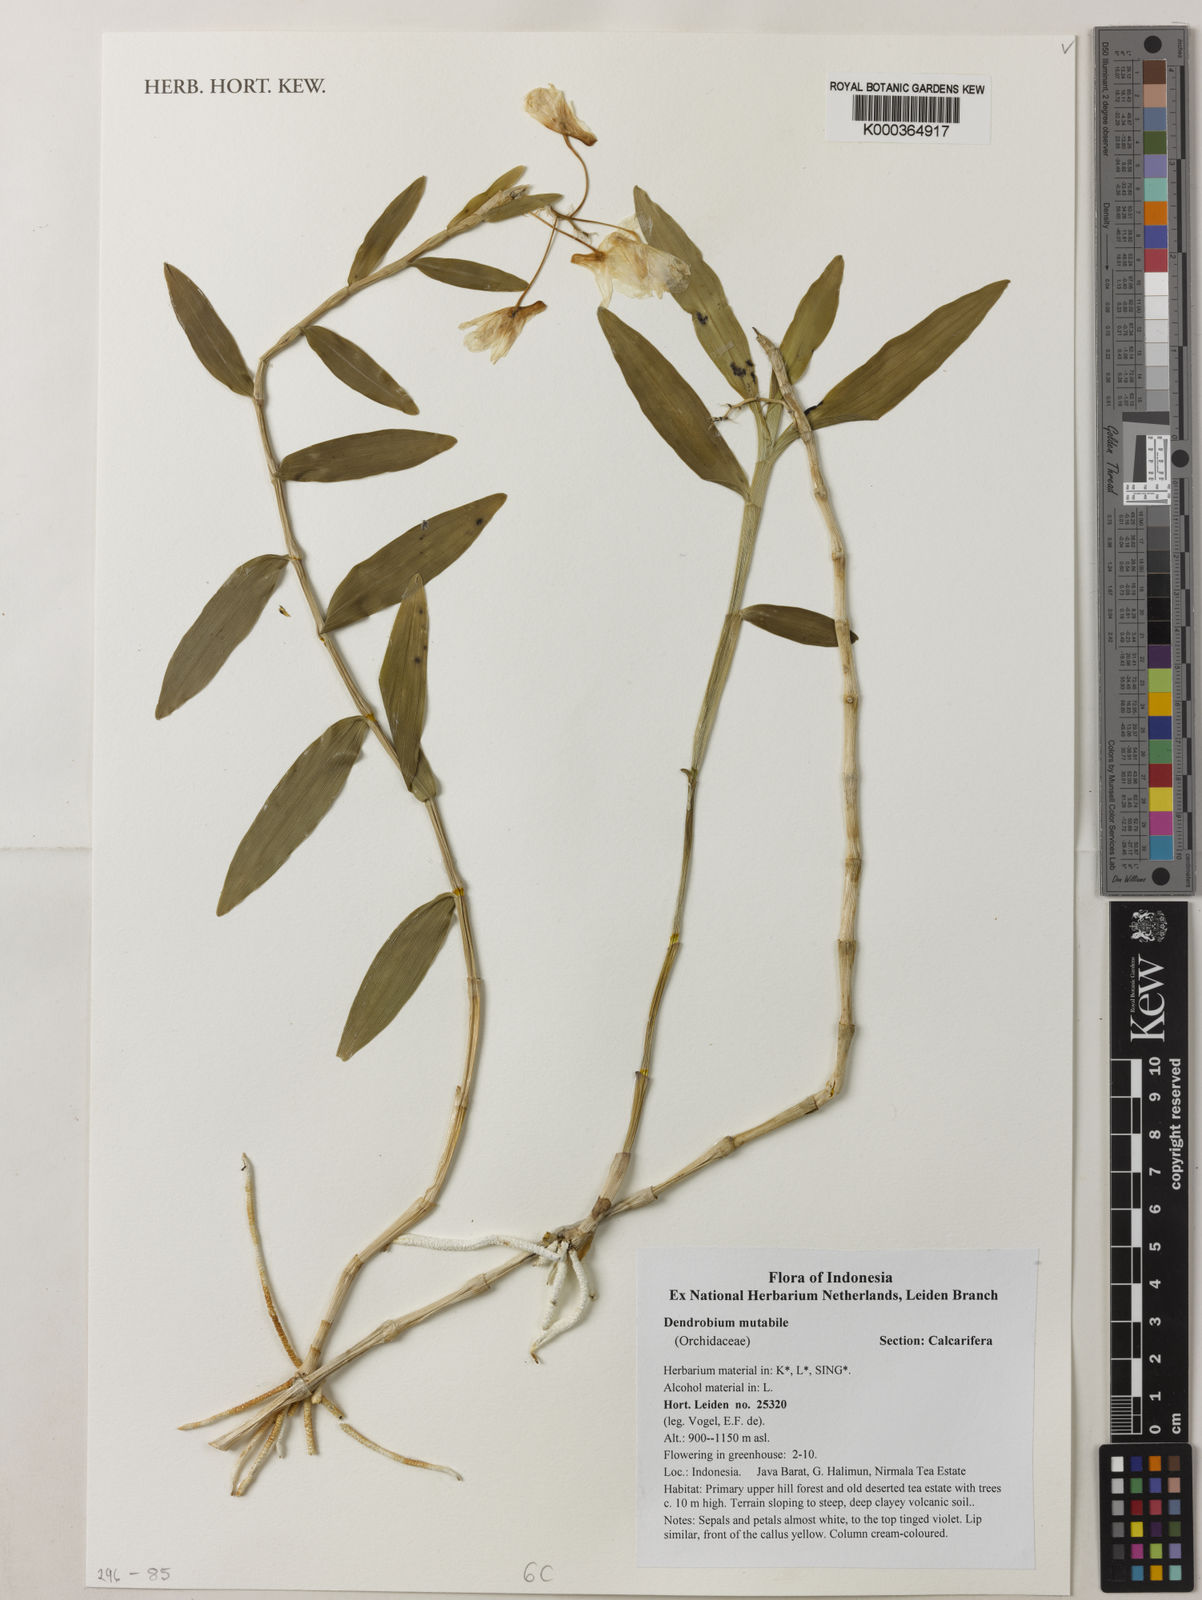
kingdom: Plantae
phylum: Tracheophyta
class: Liliopsida
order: Asparagales
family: Orchidaceae
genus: Dendrobium
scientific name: Dendrobium mutabile
